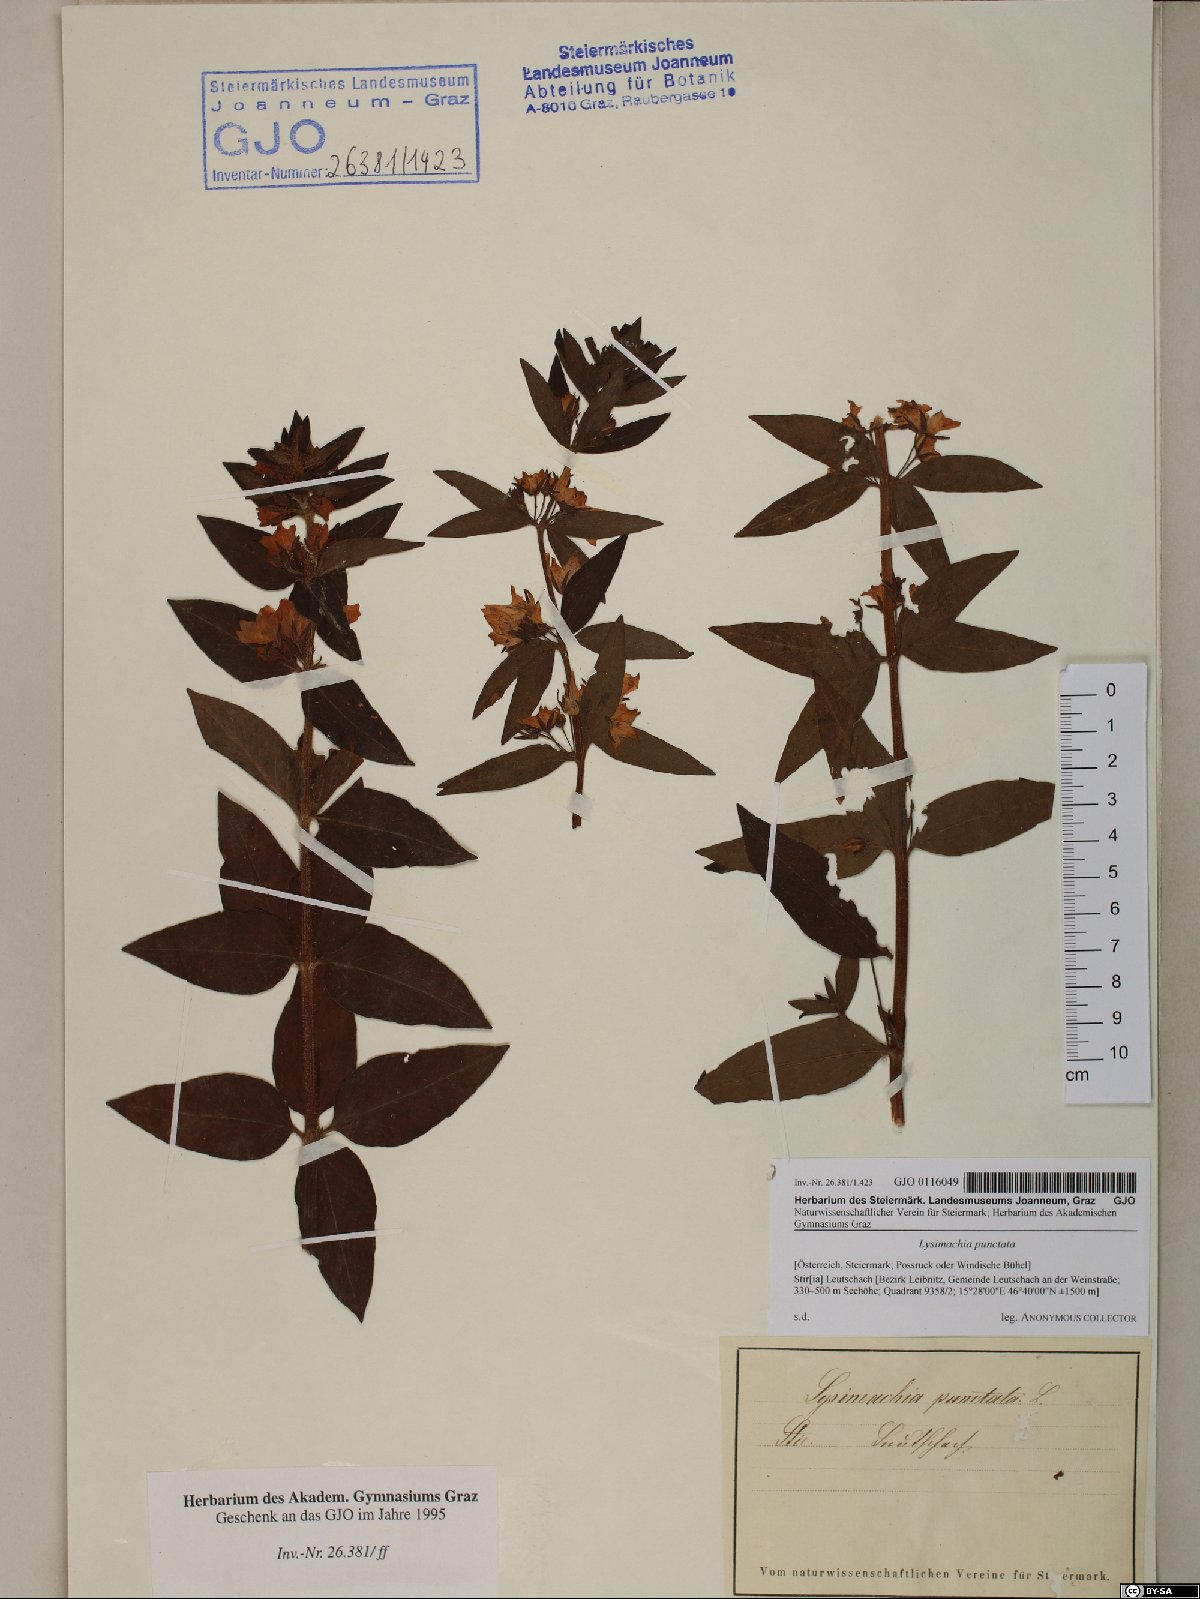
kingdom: Plantae
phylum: Tracheophyta
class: Magnoliopsida
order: Ericales
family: Primulaceae
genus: Lysimachia
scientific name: Lysimachia punctata
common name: Dotted loosestrife
